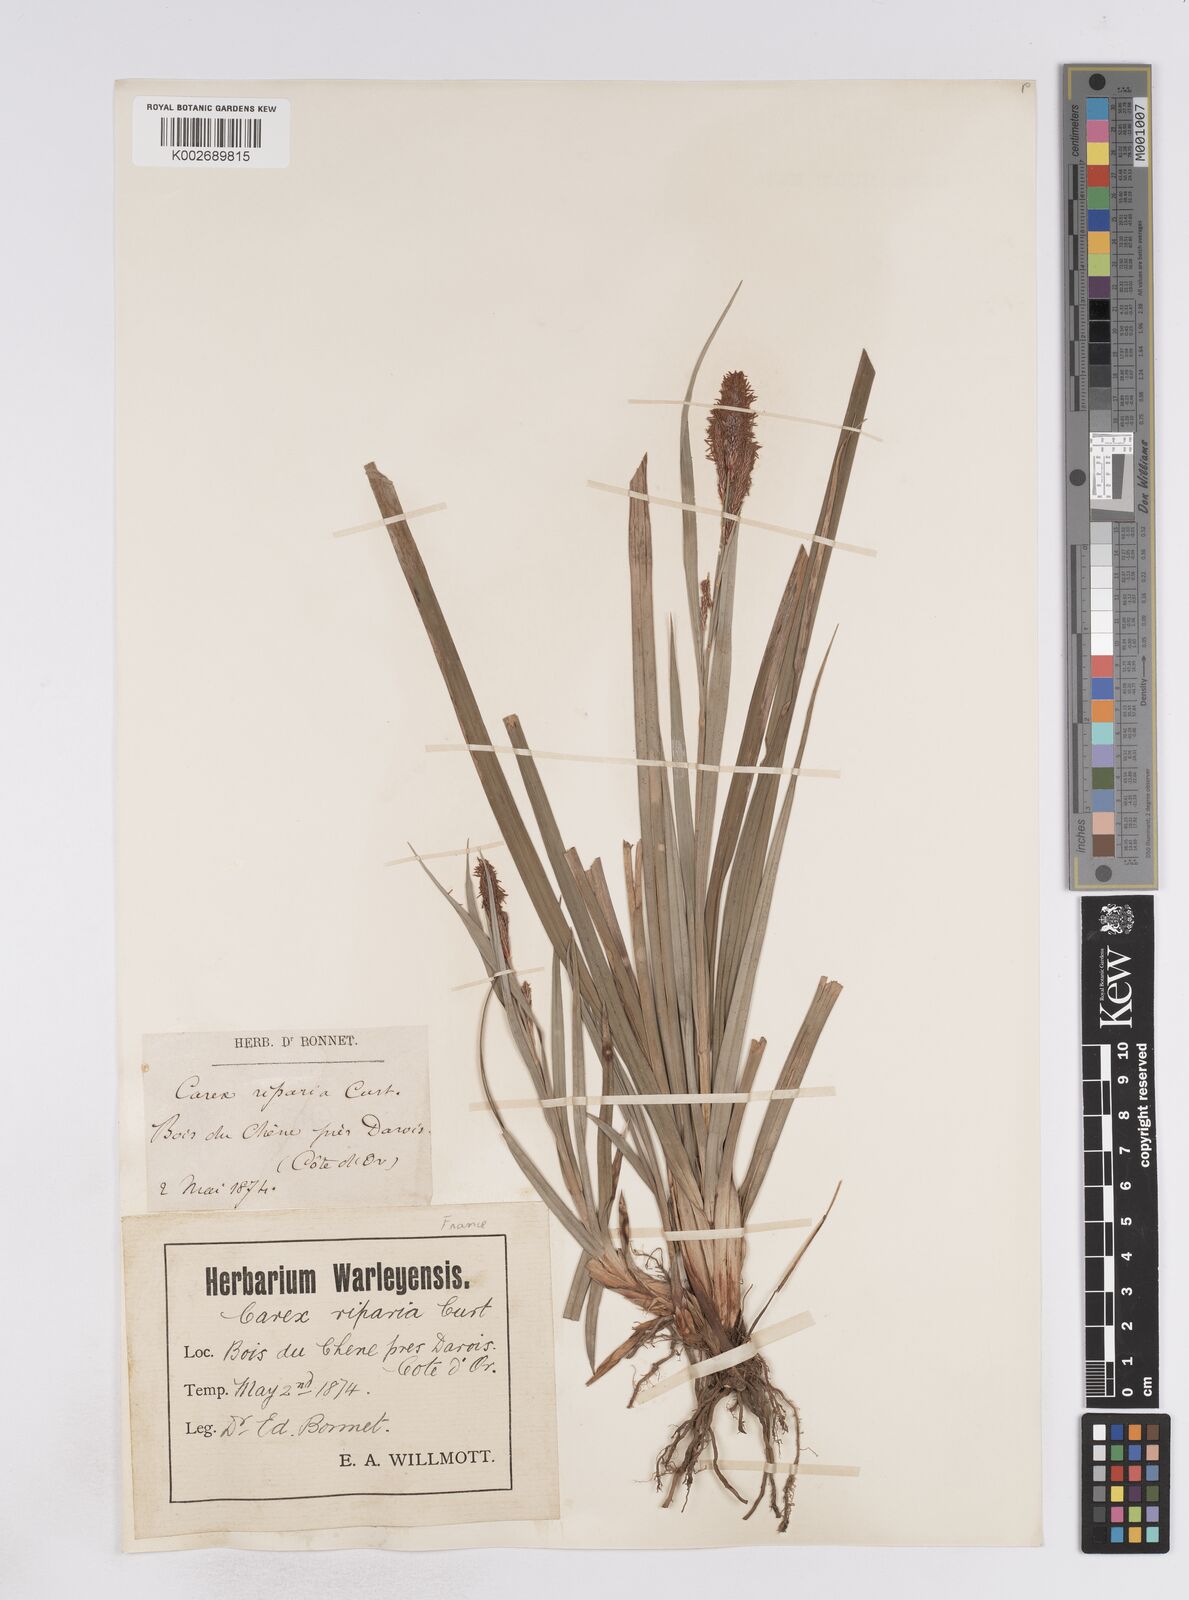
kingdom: Plantae
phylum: Tracheophyta
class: Liliopsida
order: Poales
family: Cyperaceae
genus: Carex
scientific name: Carex flacca
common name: Glaucous sedge
